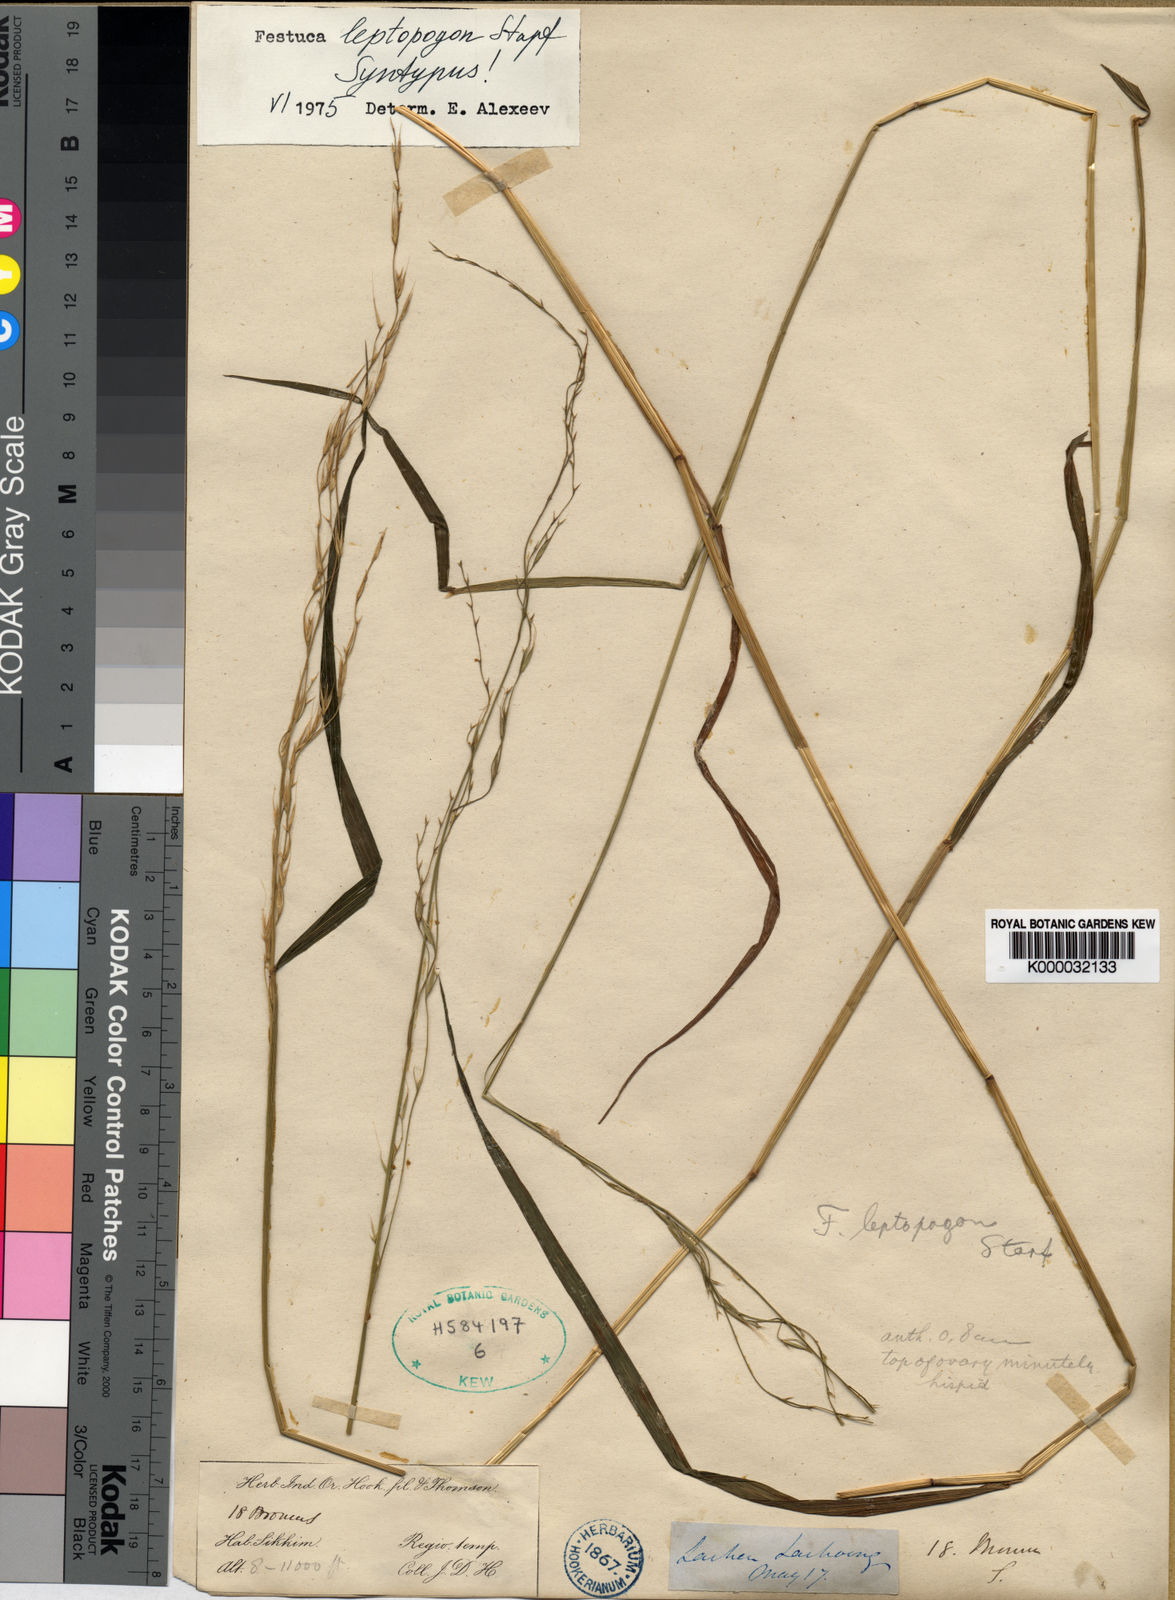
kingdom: Plantae
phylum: Tracheophyta
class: Liliopsida
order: Poales
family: Poaceae
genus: Festuca
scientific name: Festuca leptopogon
